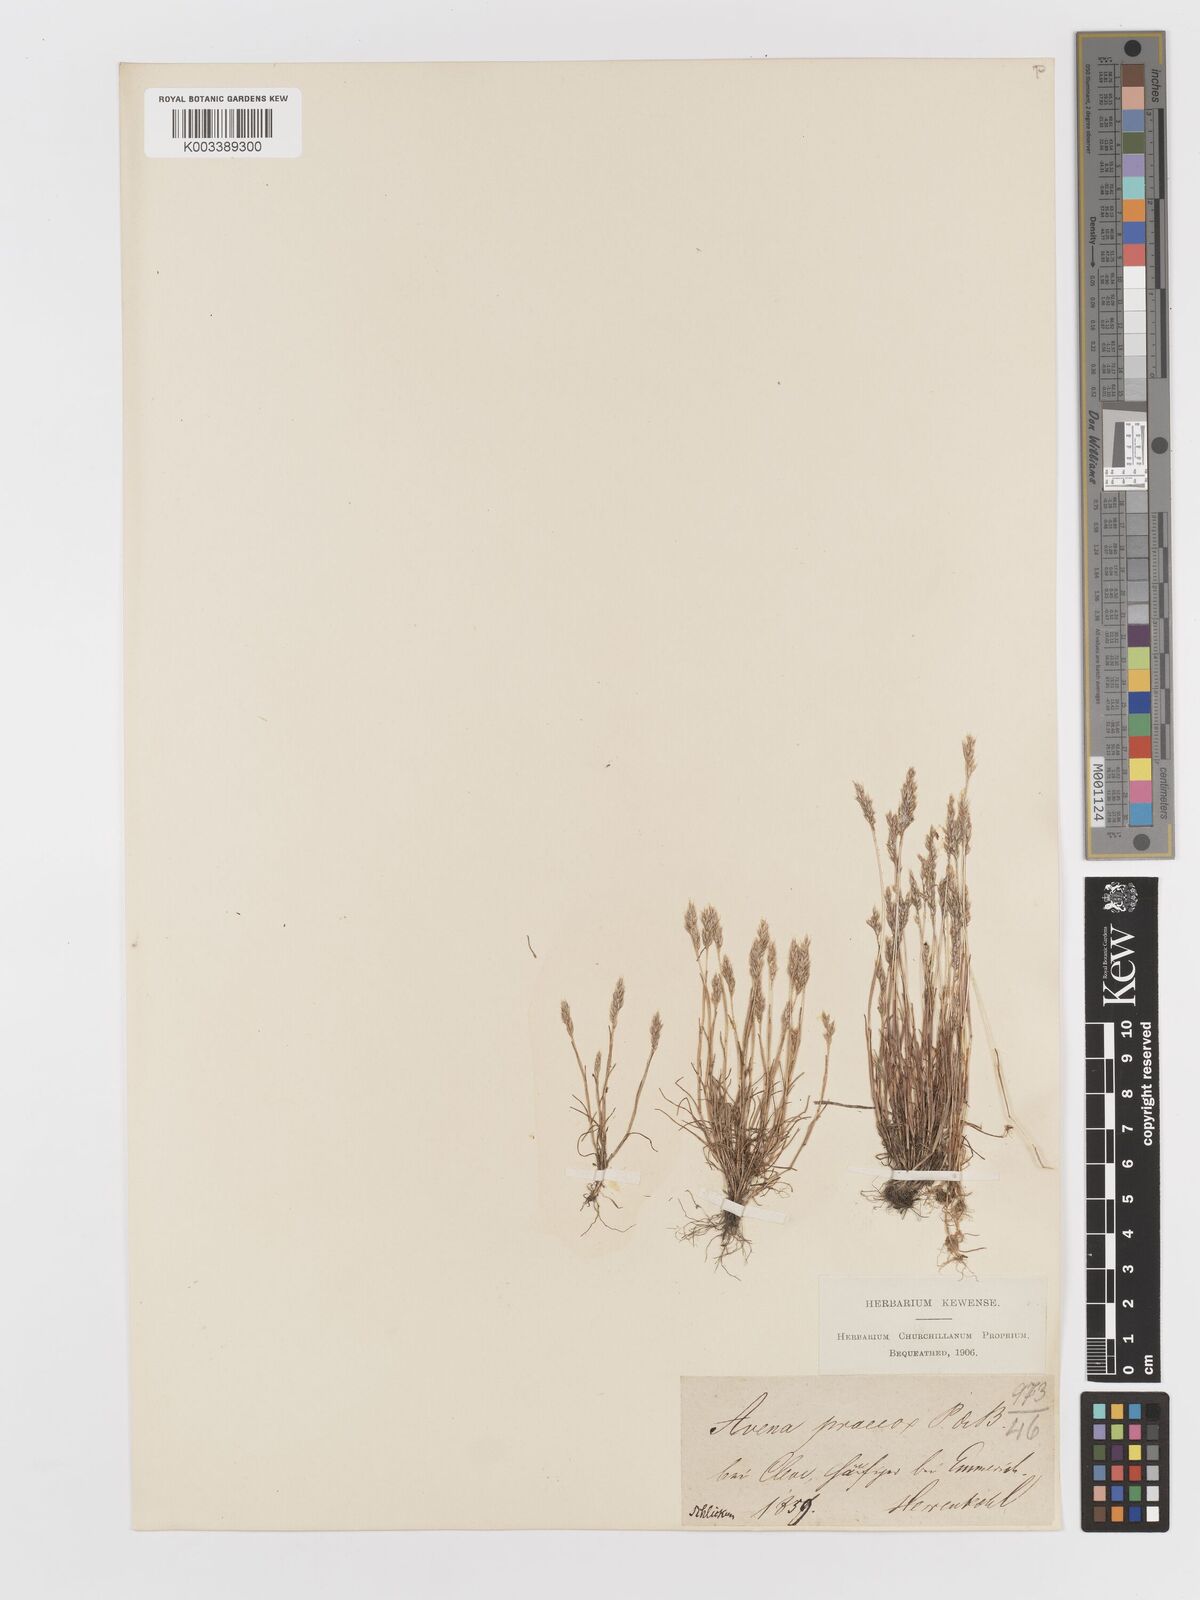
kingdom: Plantae
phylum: Tracheophyta
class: Liliopsida
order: Poales
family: Poaceae
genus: Aira
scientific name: Aira praecox
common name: Early hair-grass
